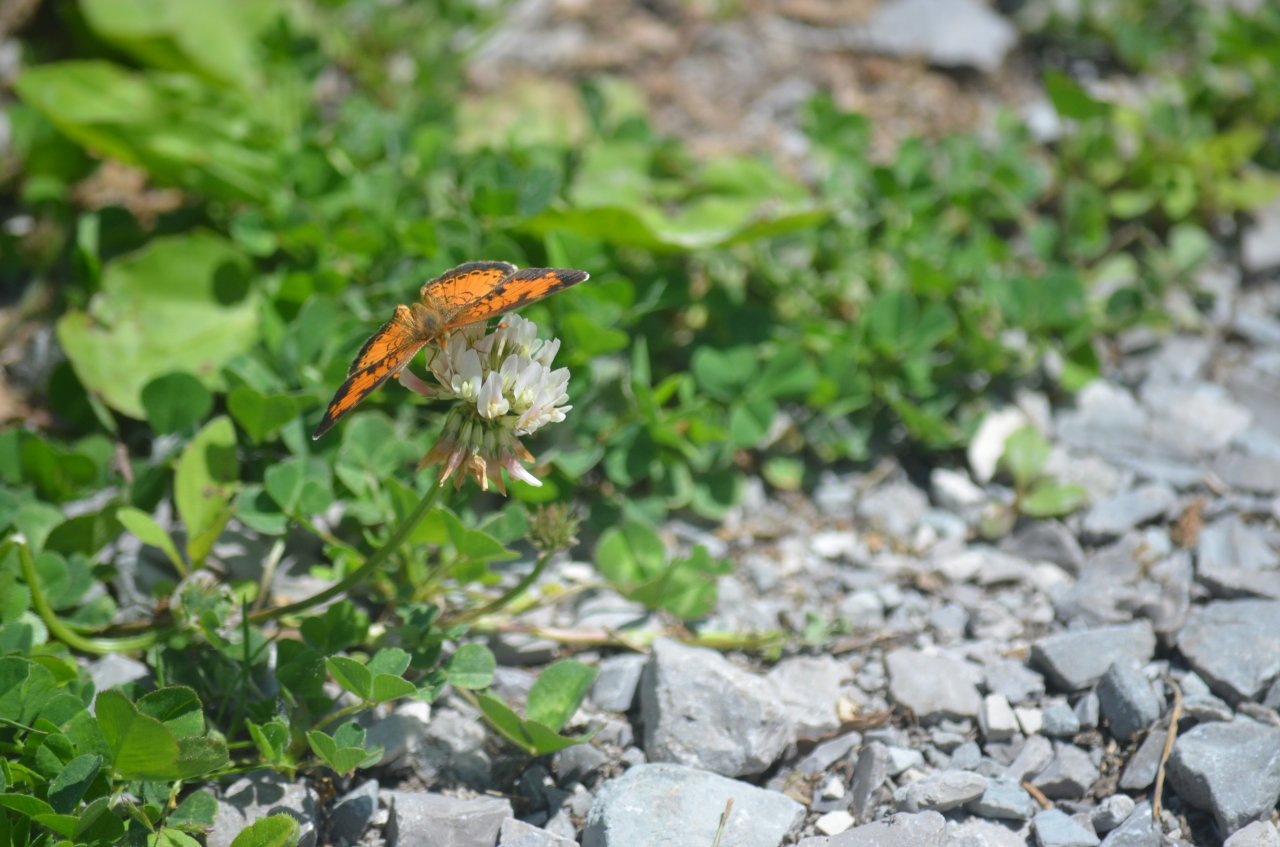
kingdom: Animalia
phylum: Arthropoda
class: Insecta
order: Lepidoptera
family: Nymphalidae
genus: Phyciodes
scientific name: Phyciodes tharos
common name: Northern Crescent
